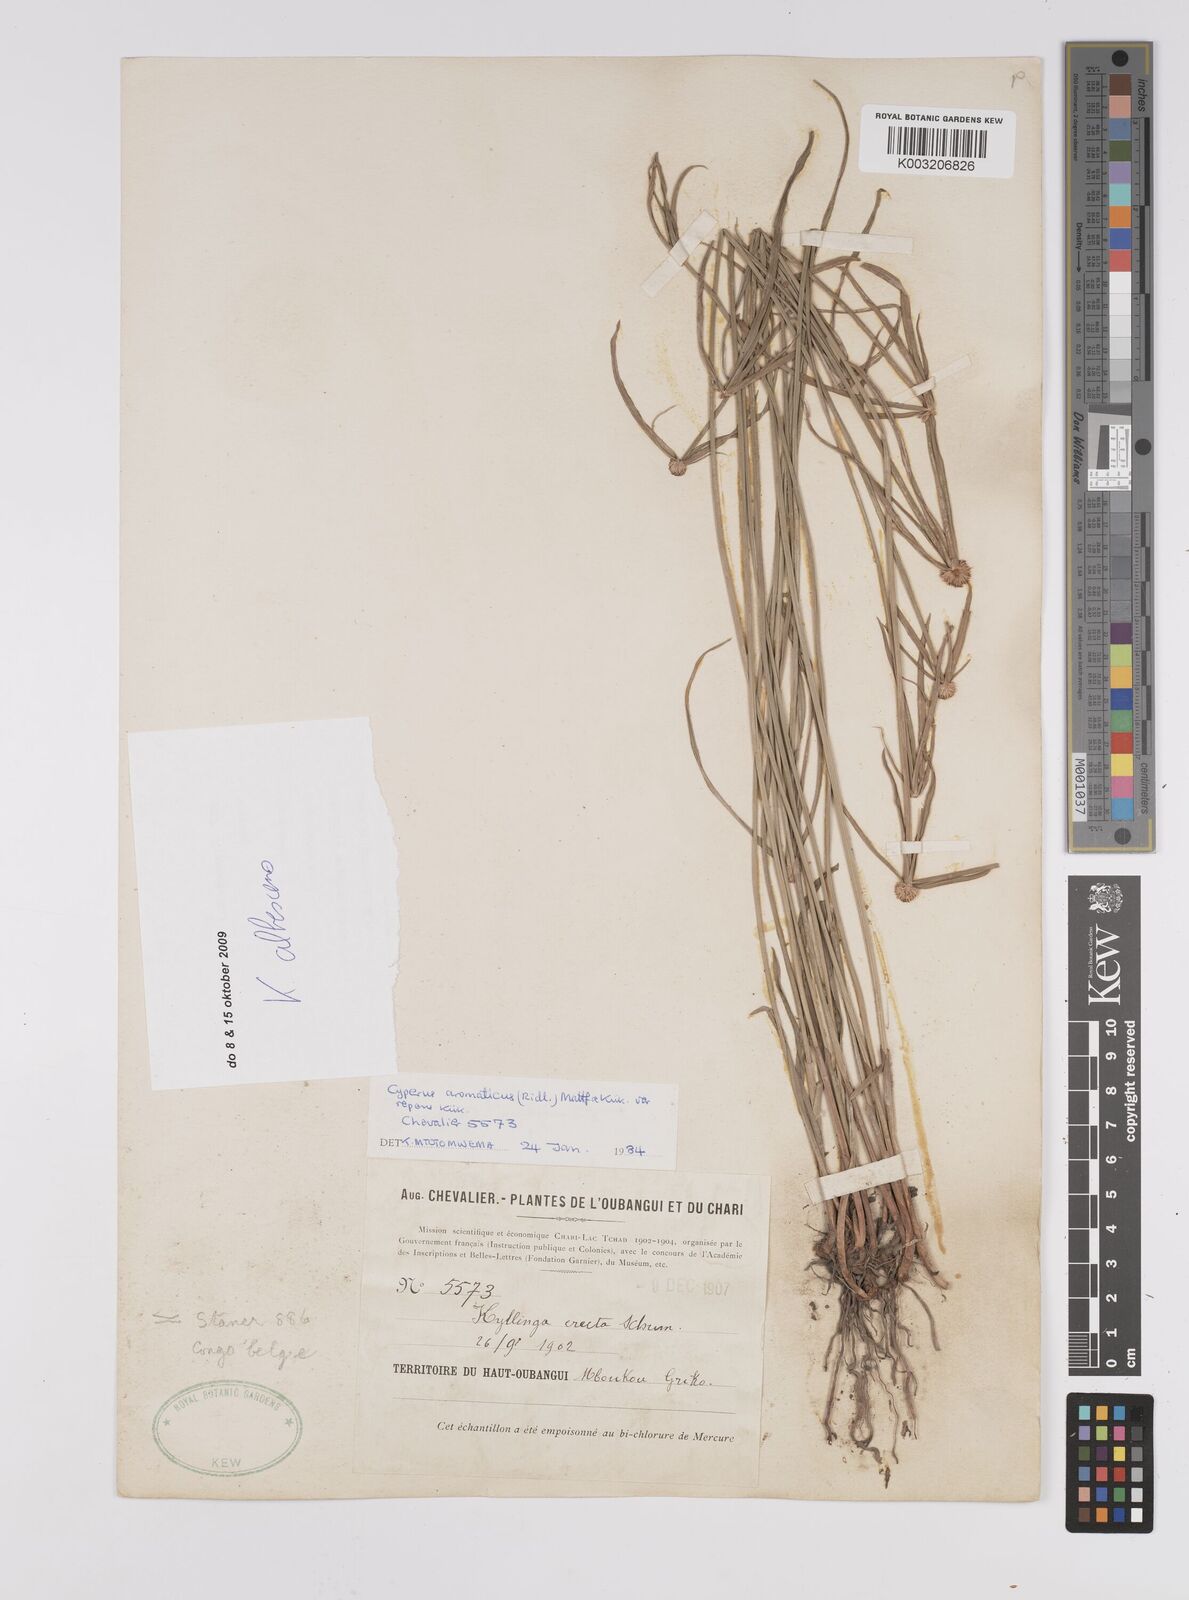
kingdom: Plantae
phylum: Tracheophyta
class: Liliopsida
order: Poales
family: Cyperaceae
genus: Cyperus
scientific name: Cyperus erectus
